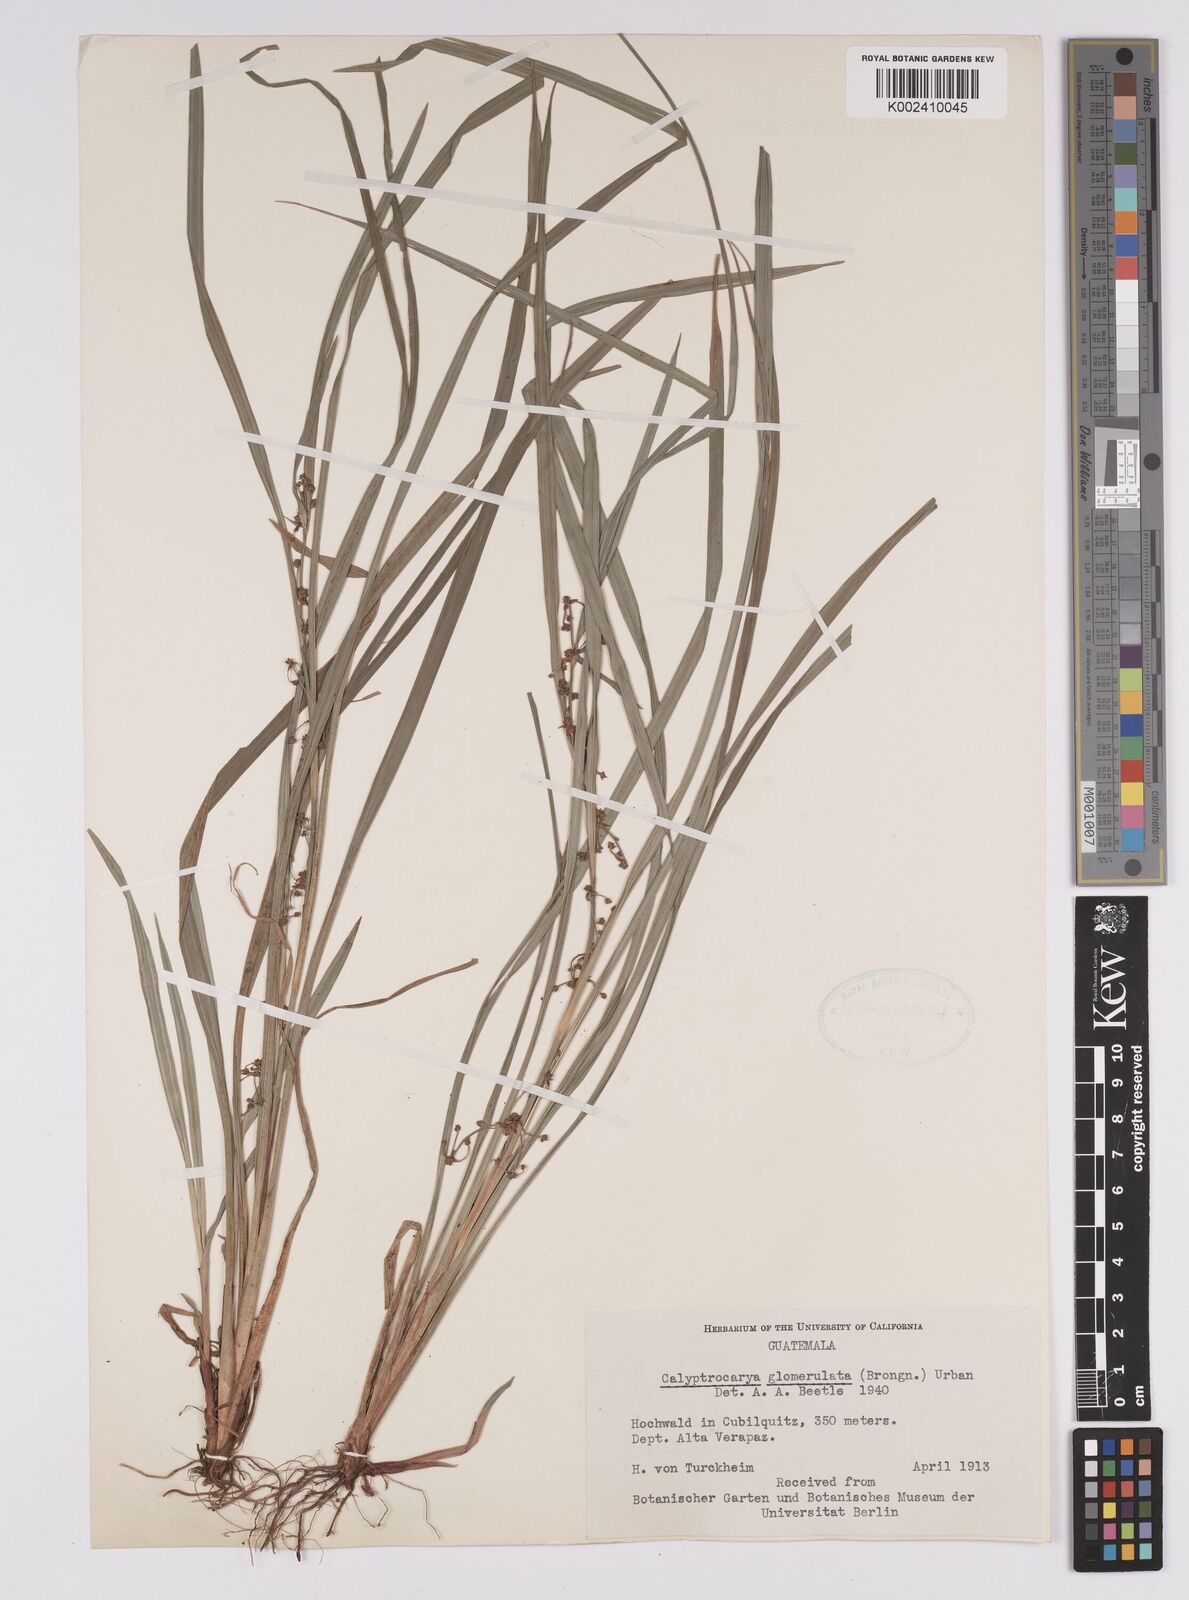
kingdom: Plantae
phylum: Tracheophyta
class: Liliopsida
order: Poales
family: Cyperaceae
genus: Calyptrocarya
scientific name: Calyptrocarya glomerulata
